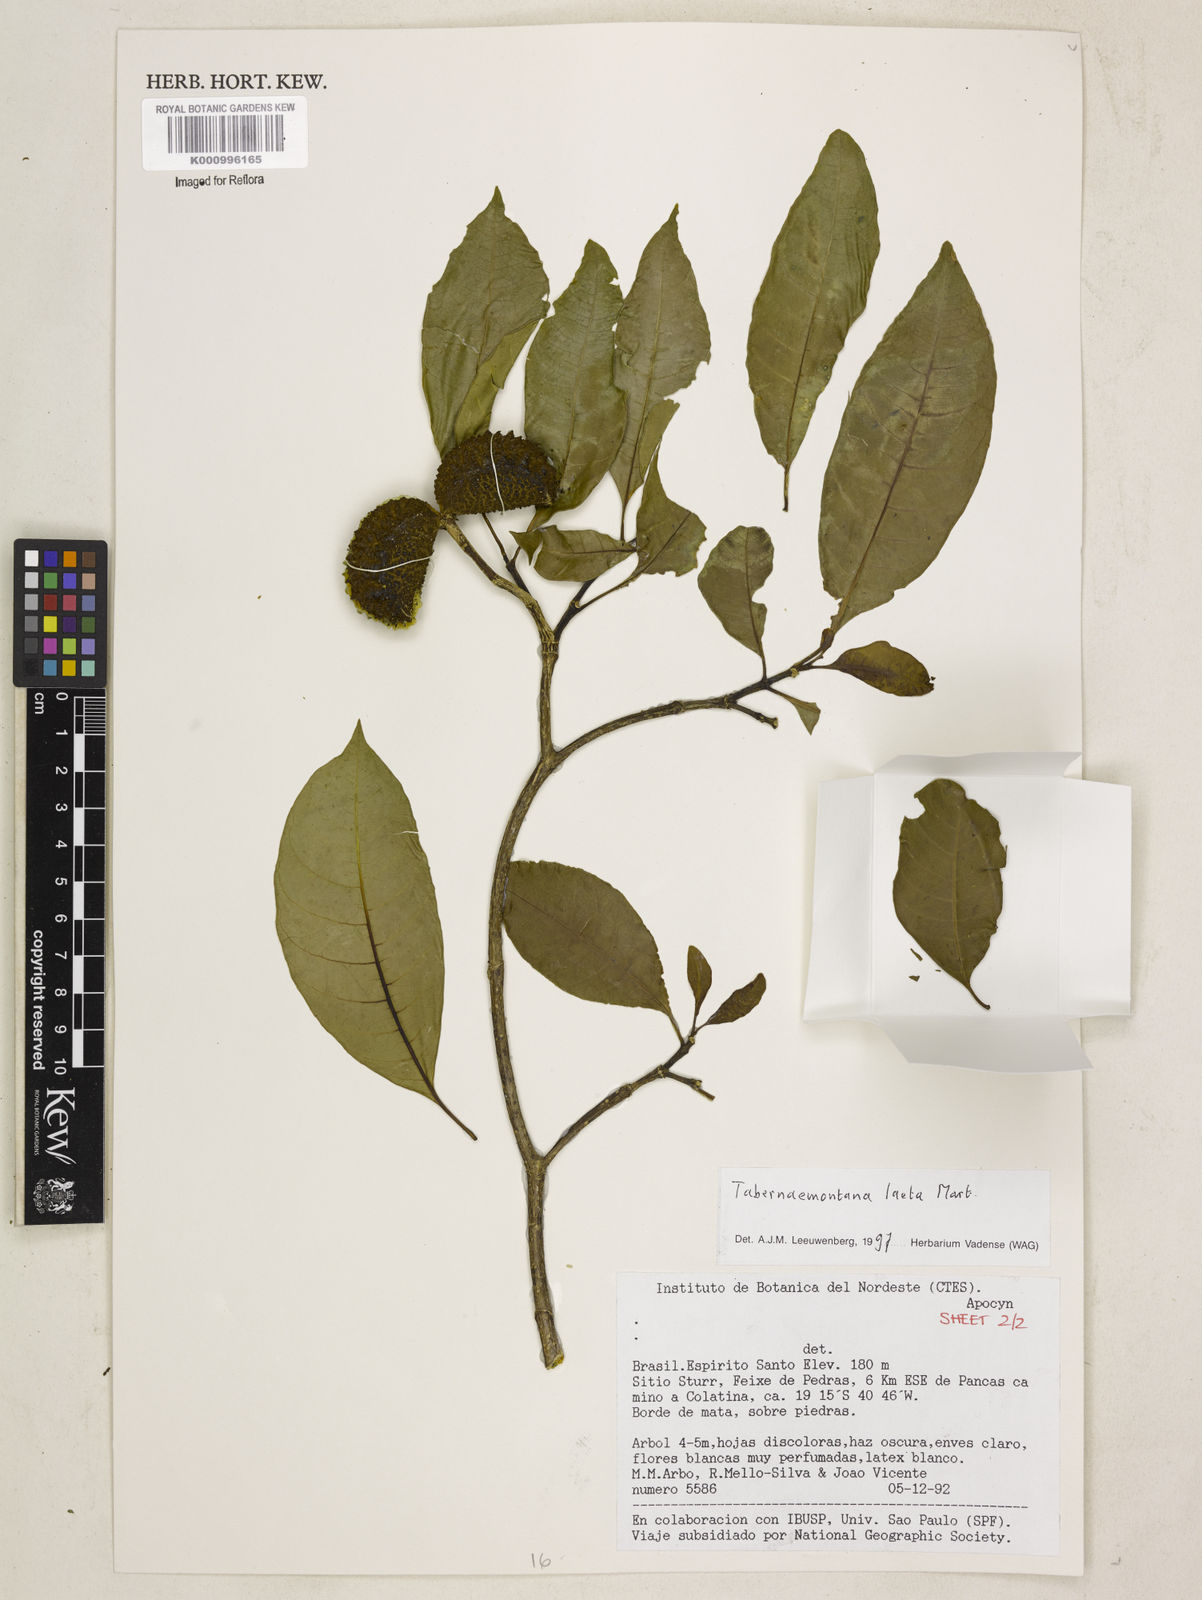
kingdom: Plantae
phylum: Tracheophyta
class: Magnoliopsida
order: Gentianales
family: Apocynaceae
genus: Tabernaemontana
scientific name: Tabernaemontana laeta
